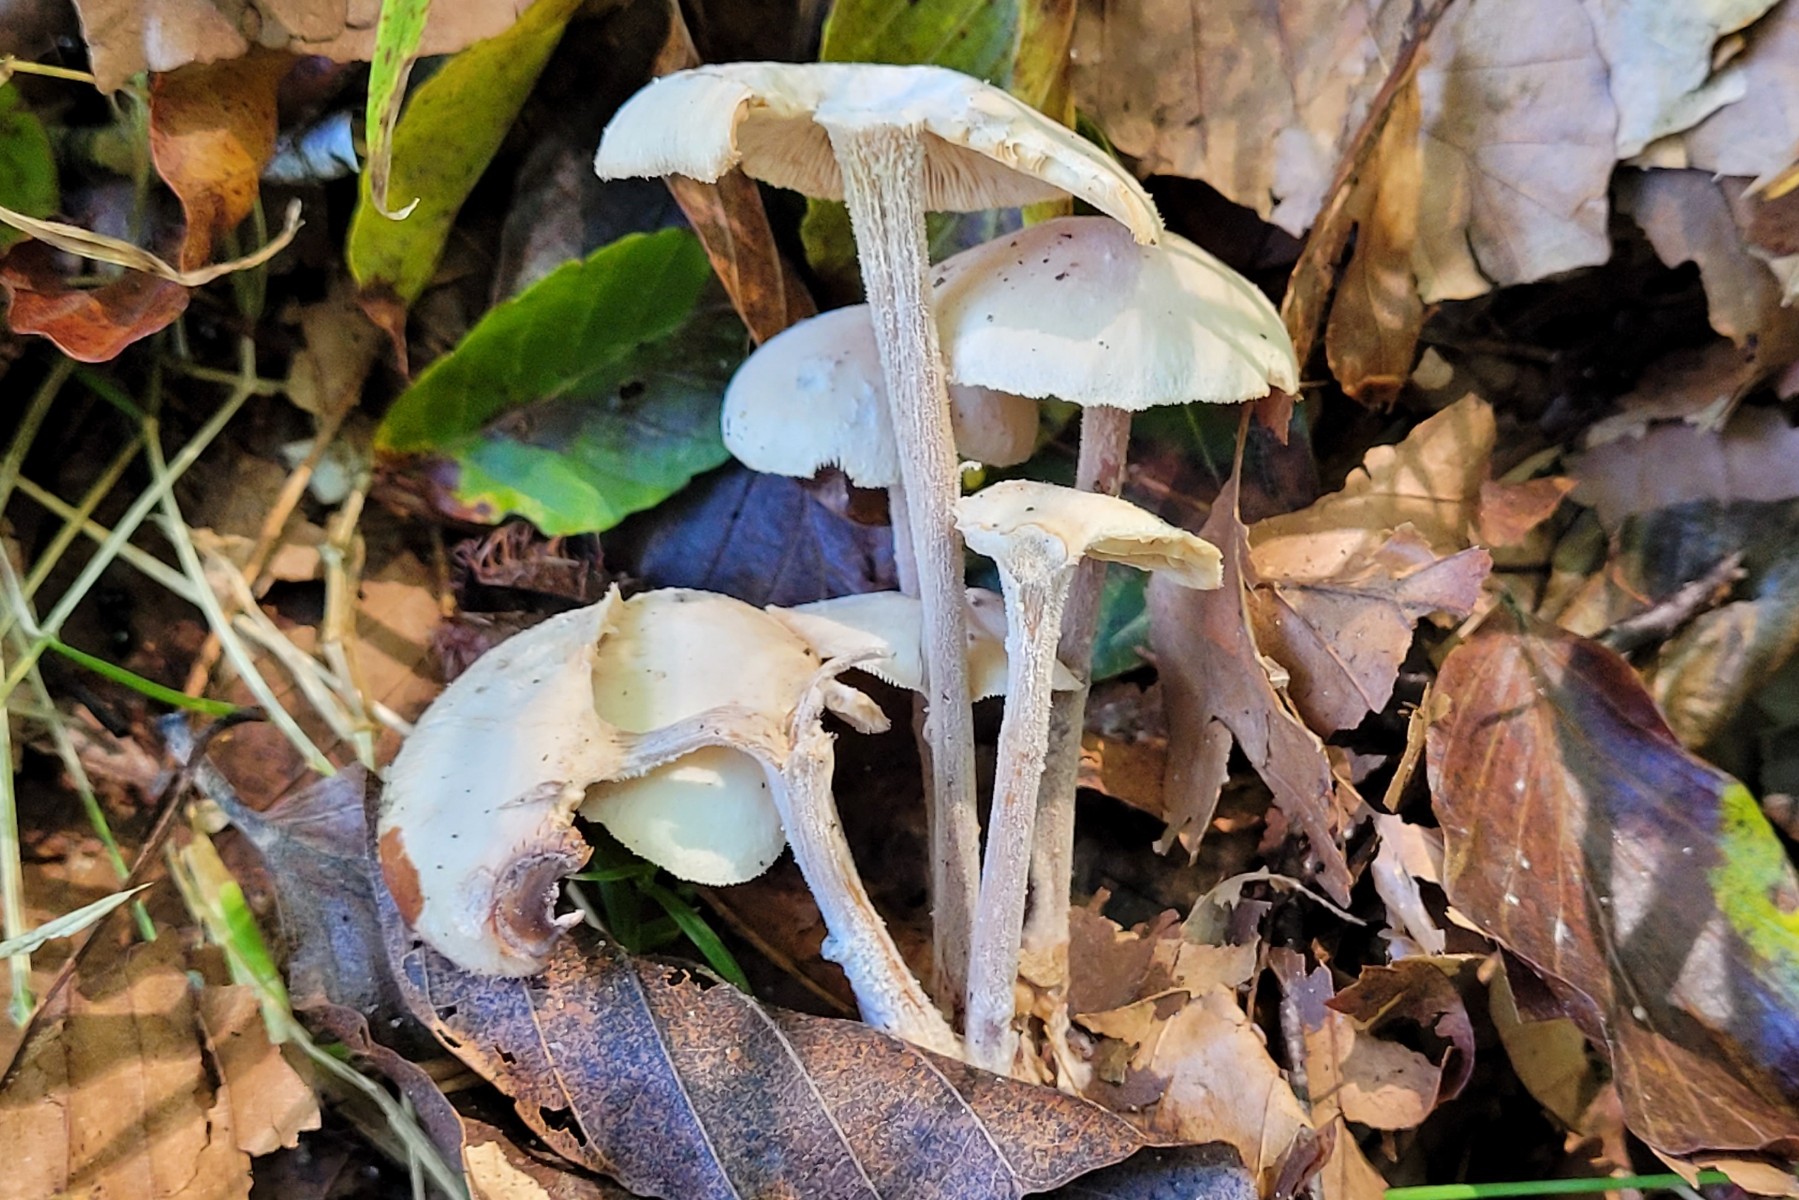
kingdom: Fungi
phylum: Basidiomycota
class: Agaricomycetes
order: Agaricales
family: Omphalotaceae
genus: Collybiopsis
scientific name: Collybiopsis confluens
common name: knippe-fladhat
